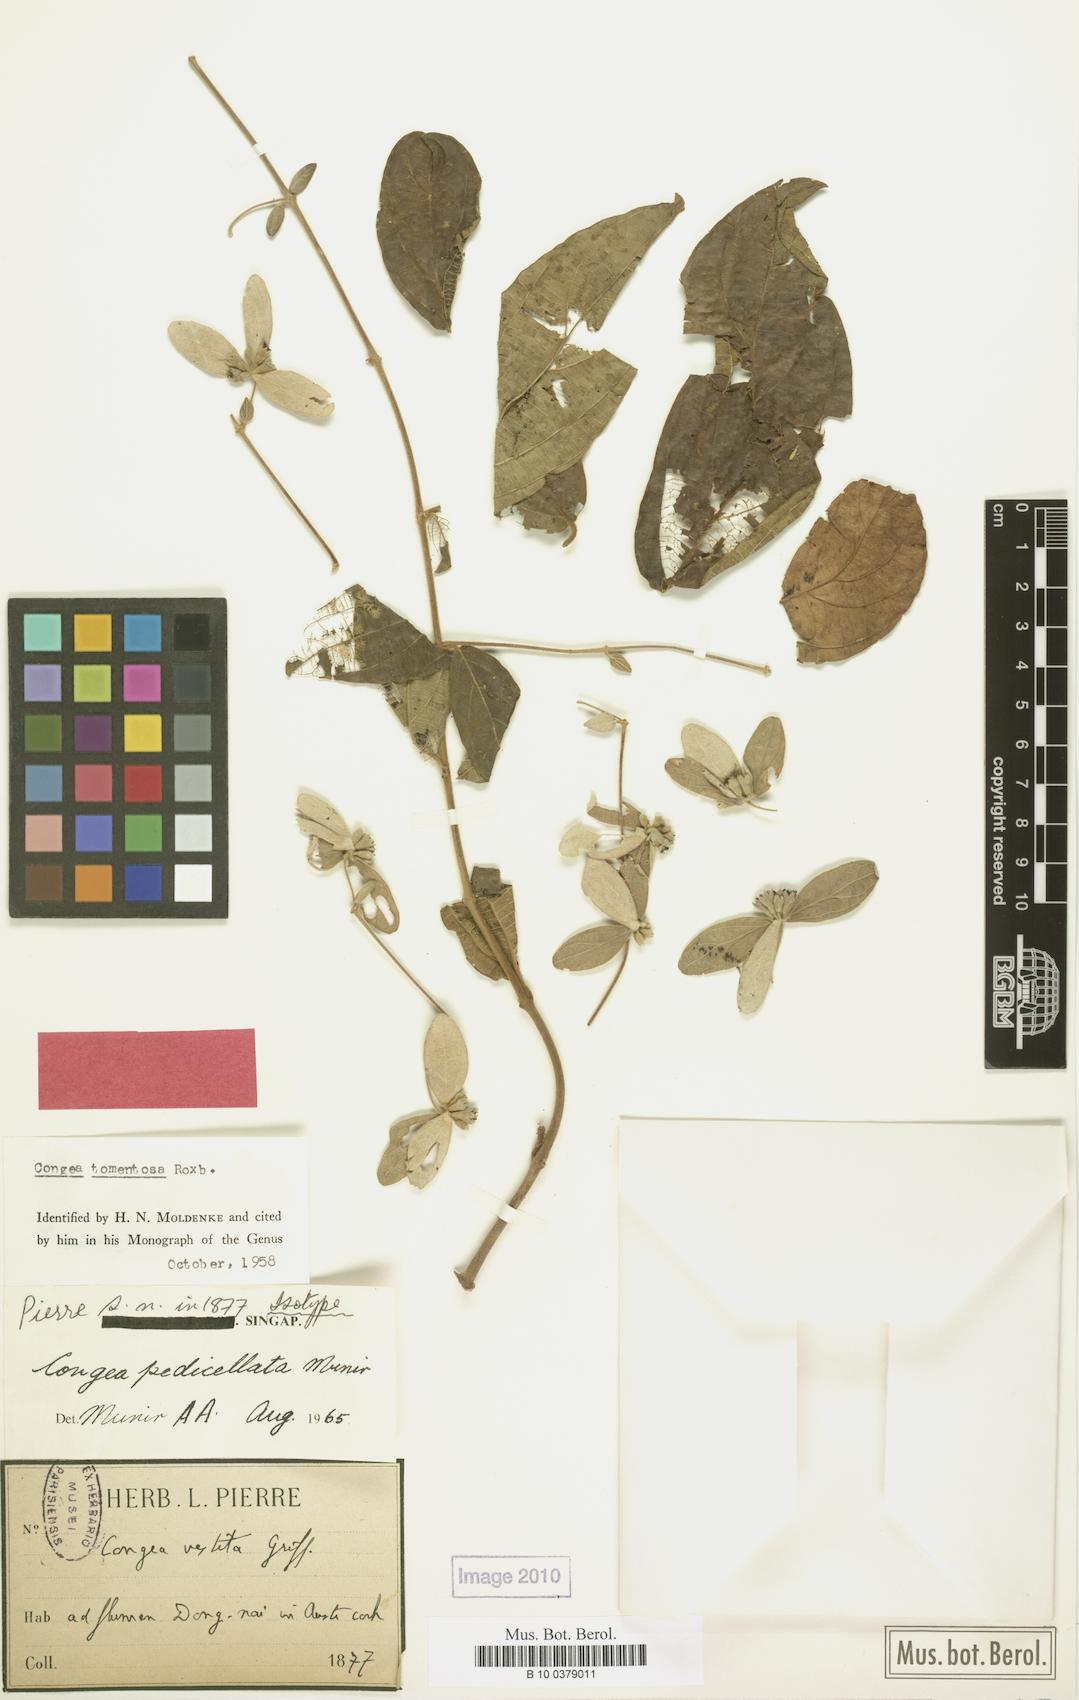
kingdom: Plantae
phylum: Tracheophyta
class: Magnoliopsida
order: Lamiales
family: Lamiaceae
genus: Congea
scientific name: Congea pedicellata
